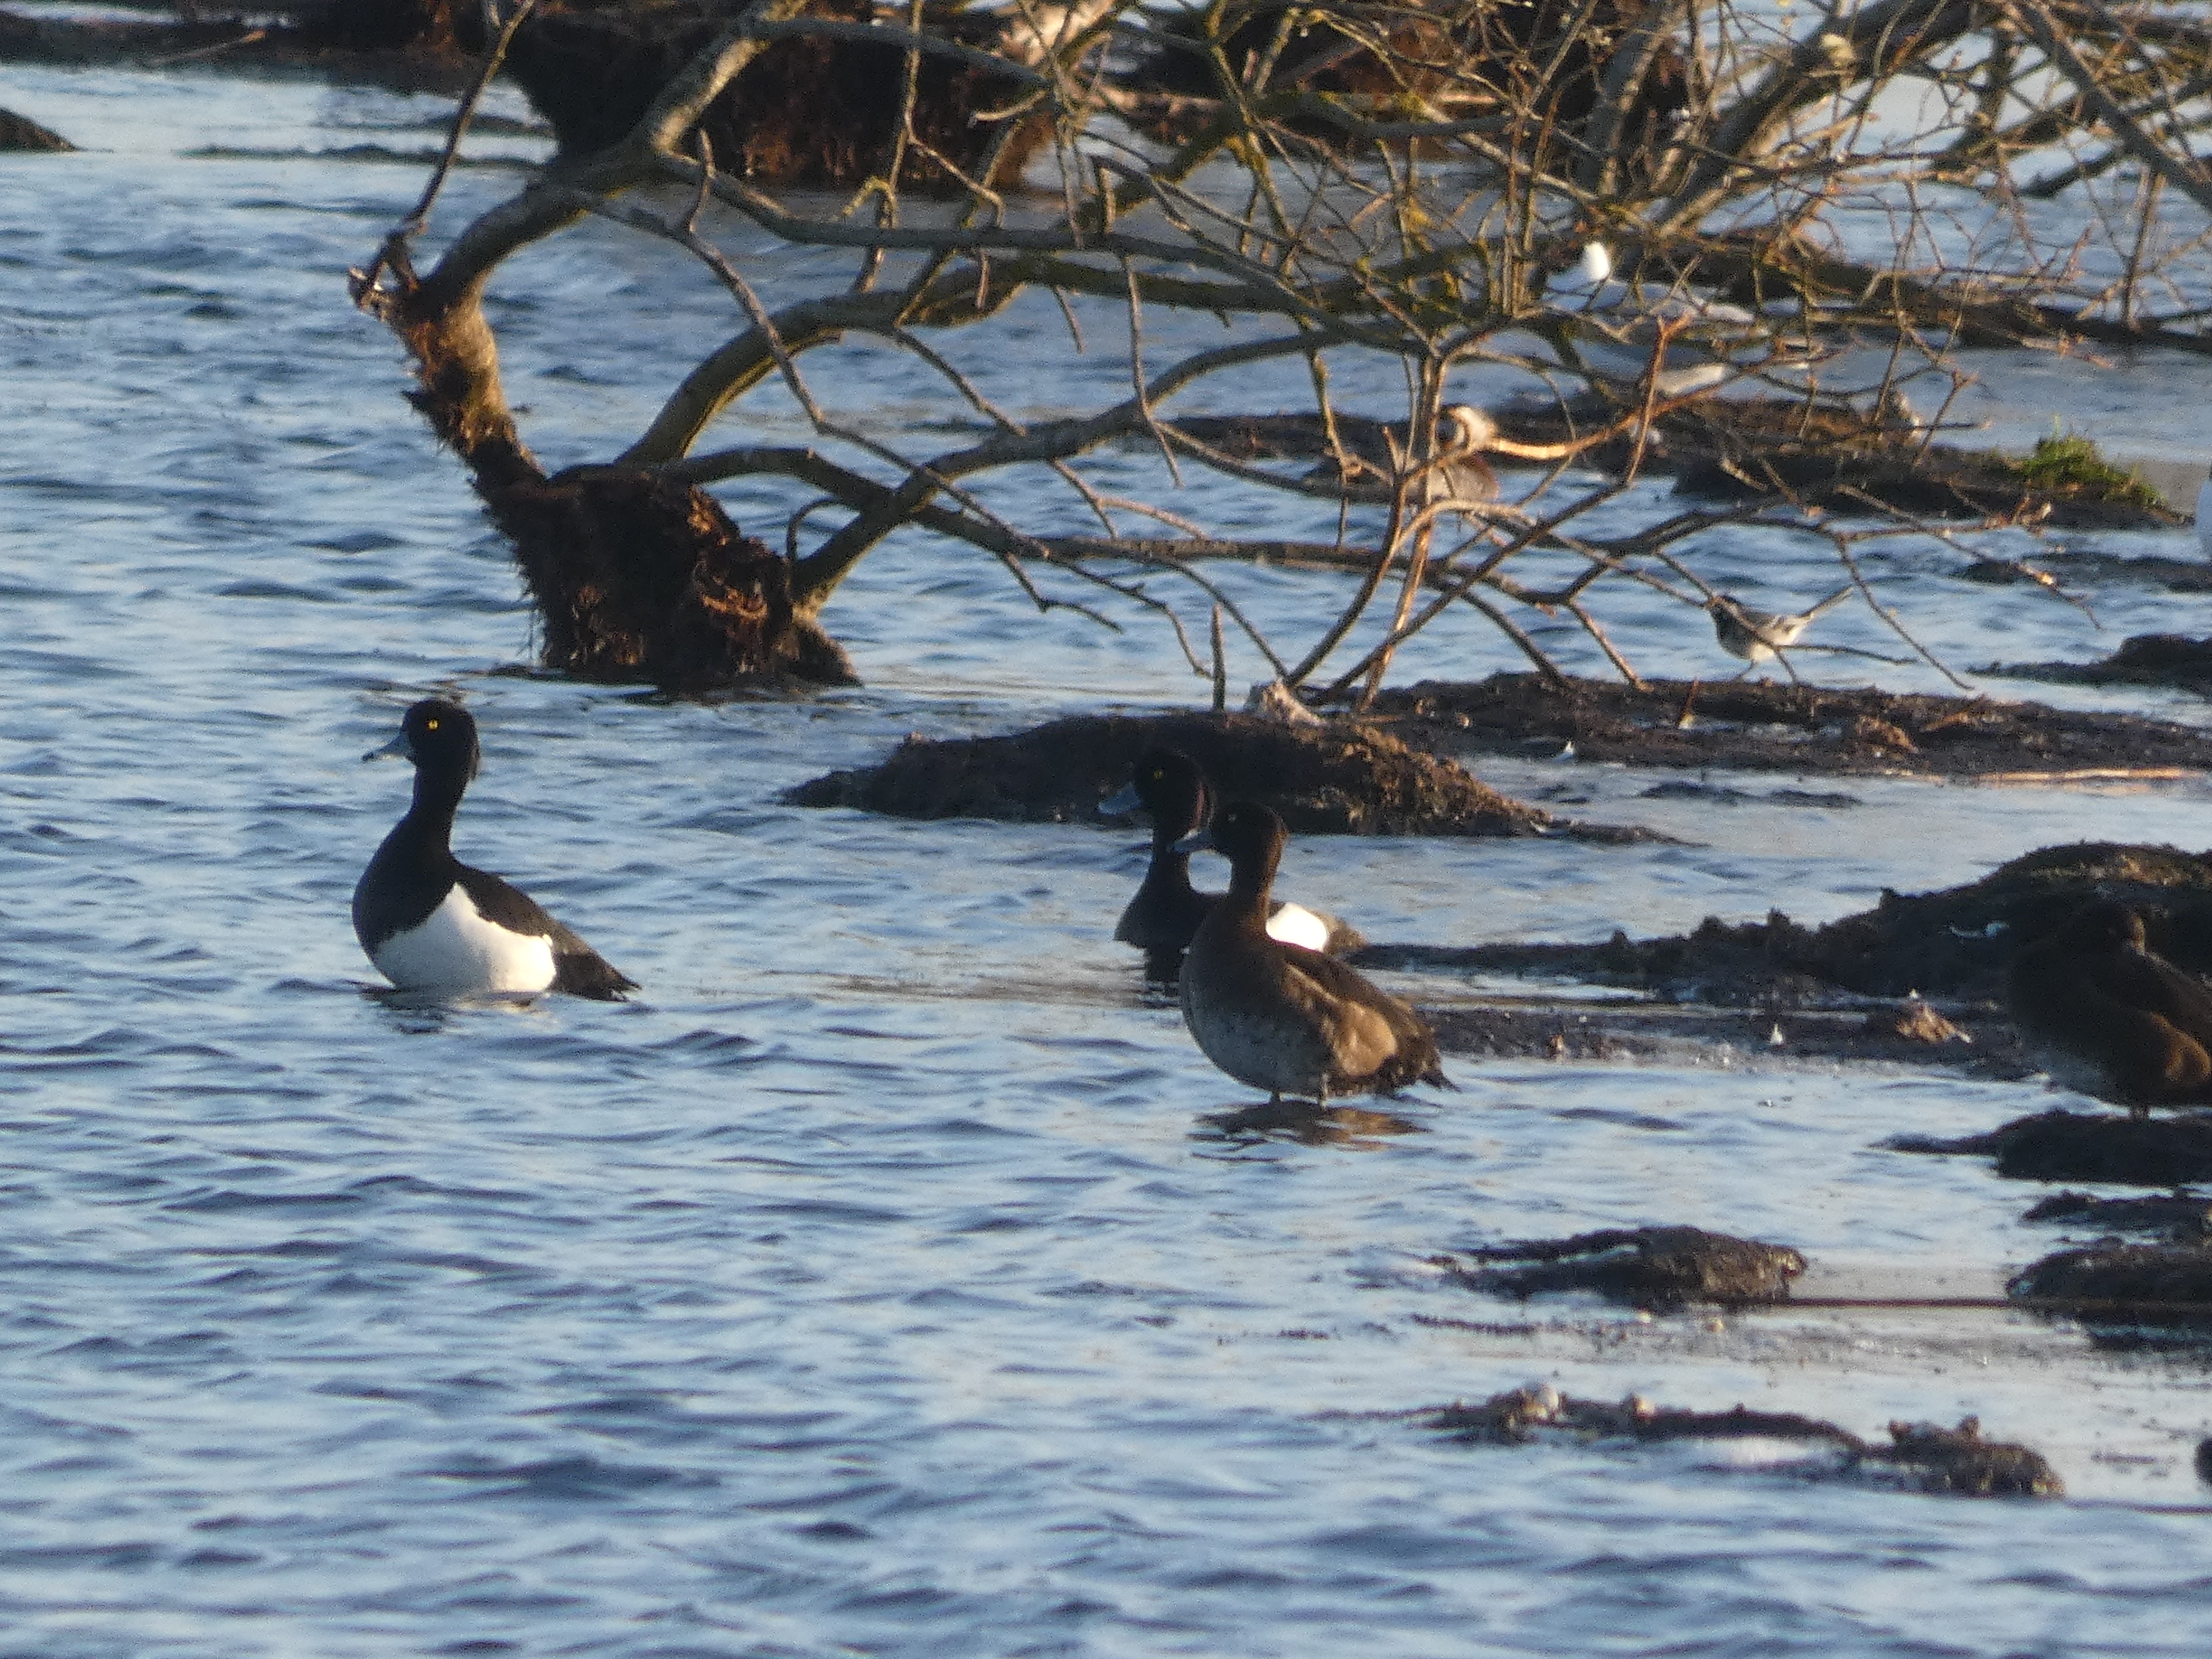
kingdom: Animalia
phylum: Chordata
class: Aves
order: Passeriformes
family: Motacillidae
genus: Motacilla
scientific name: Motacilla alba
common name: Hvid vipstjert
